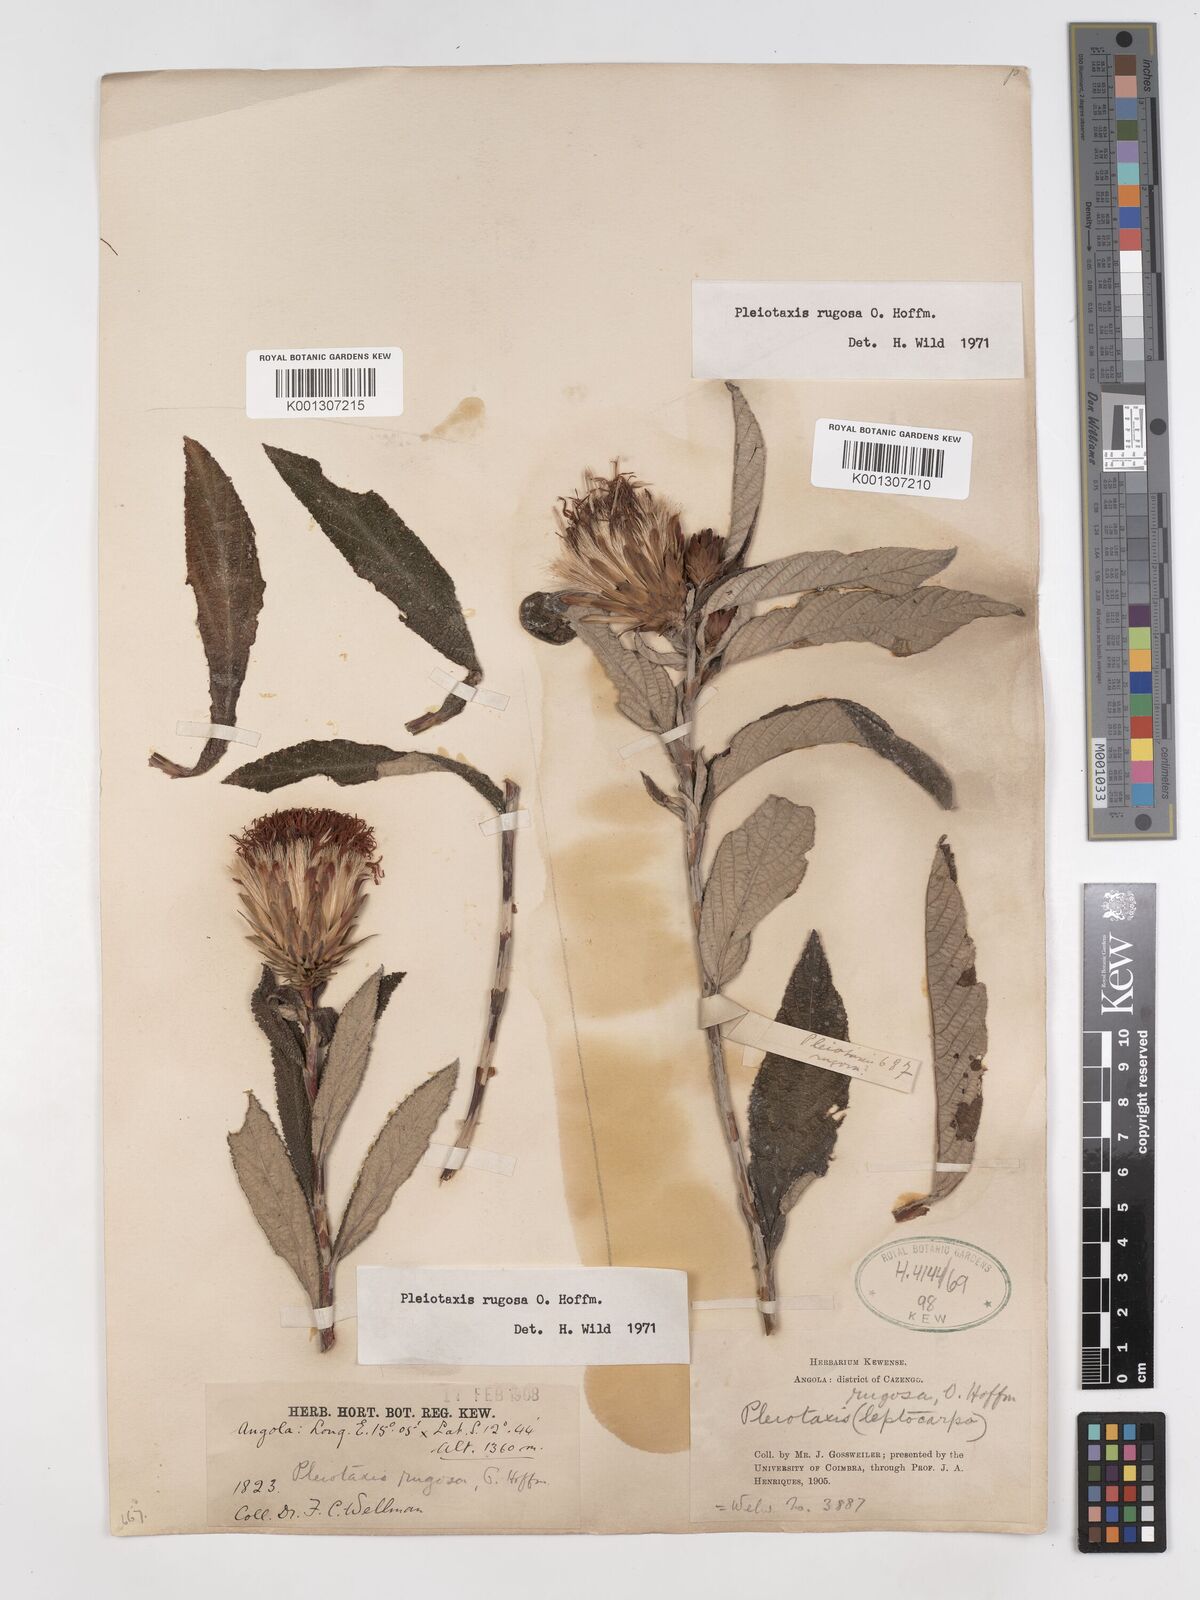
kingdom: Plantae
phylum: Tracheophyta
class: Magnoliopsida
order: Asterales
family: Asteraceae
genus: Pleiotaxis
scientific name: Pleiotaxis rugosa
